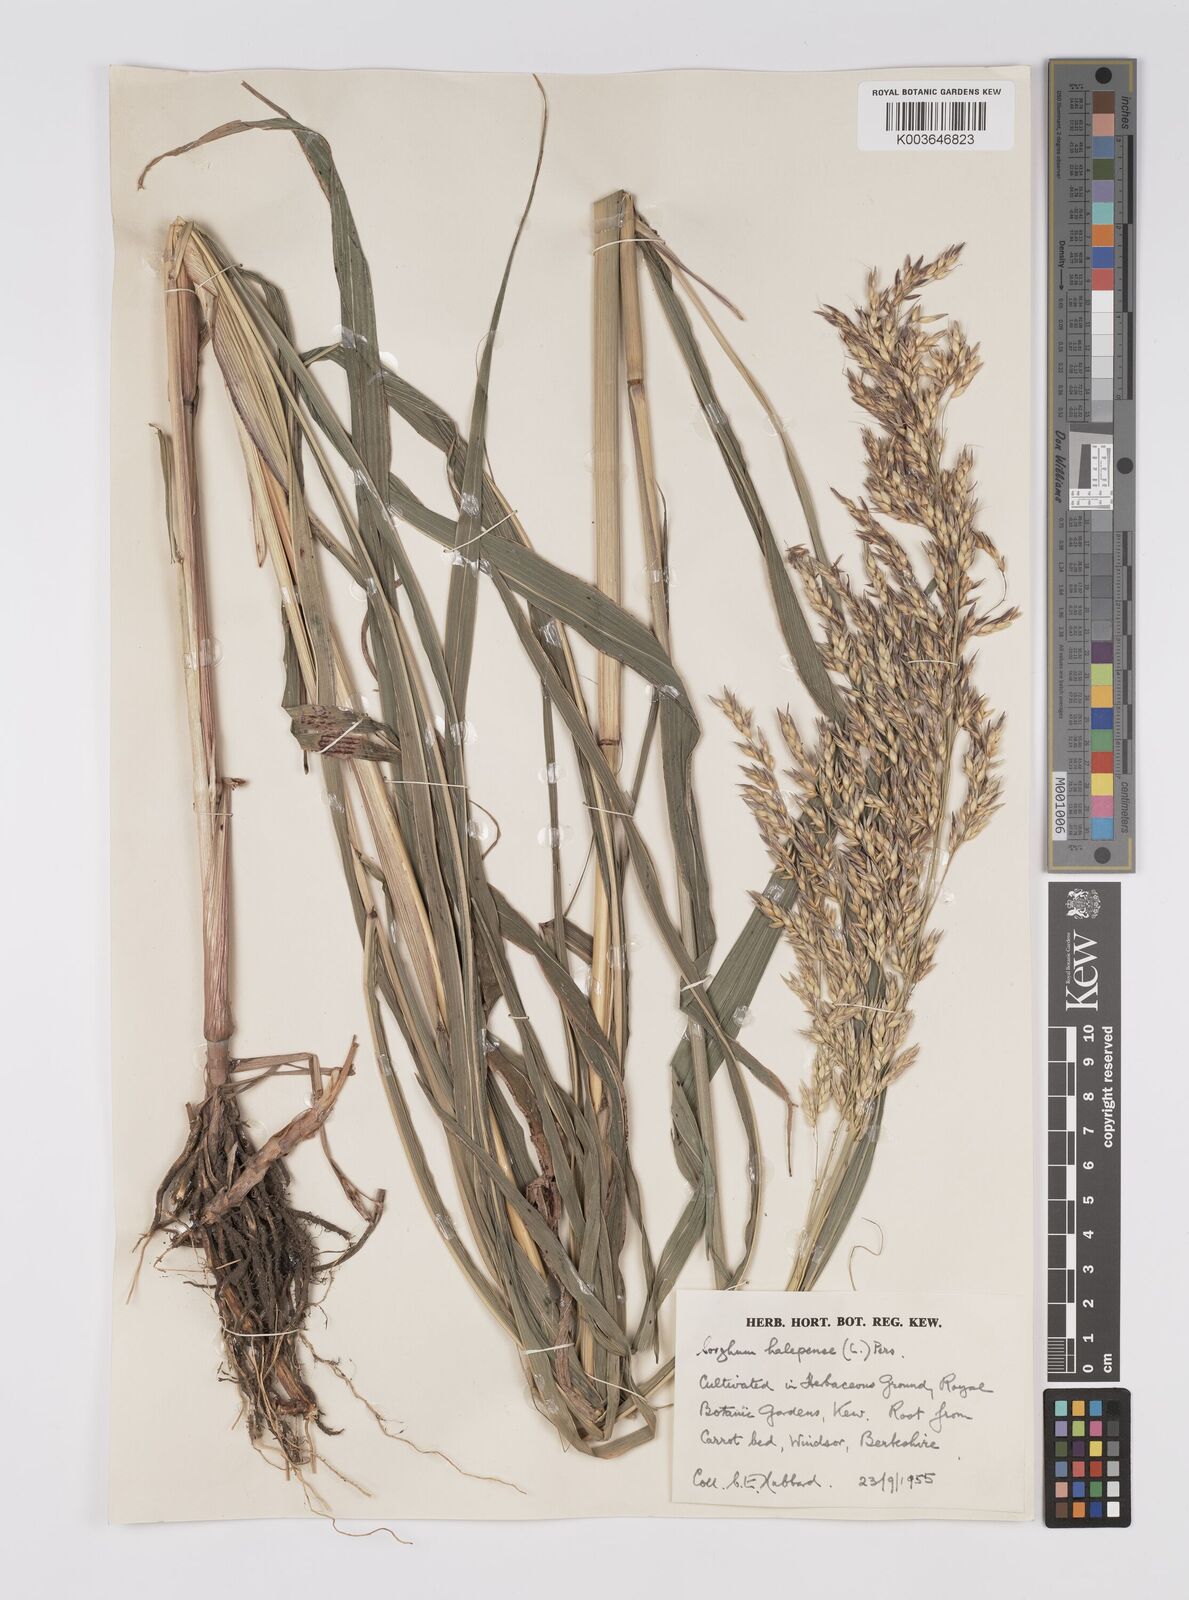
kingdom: Plantae
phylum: Tracheophyta
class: Liliopsida
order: Poales
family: Poaceae
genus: Sorghum
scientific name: Sorghum halepense
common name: Johnson-grass
